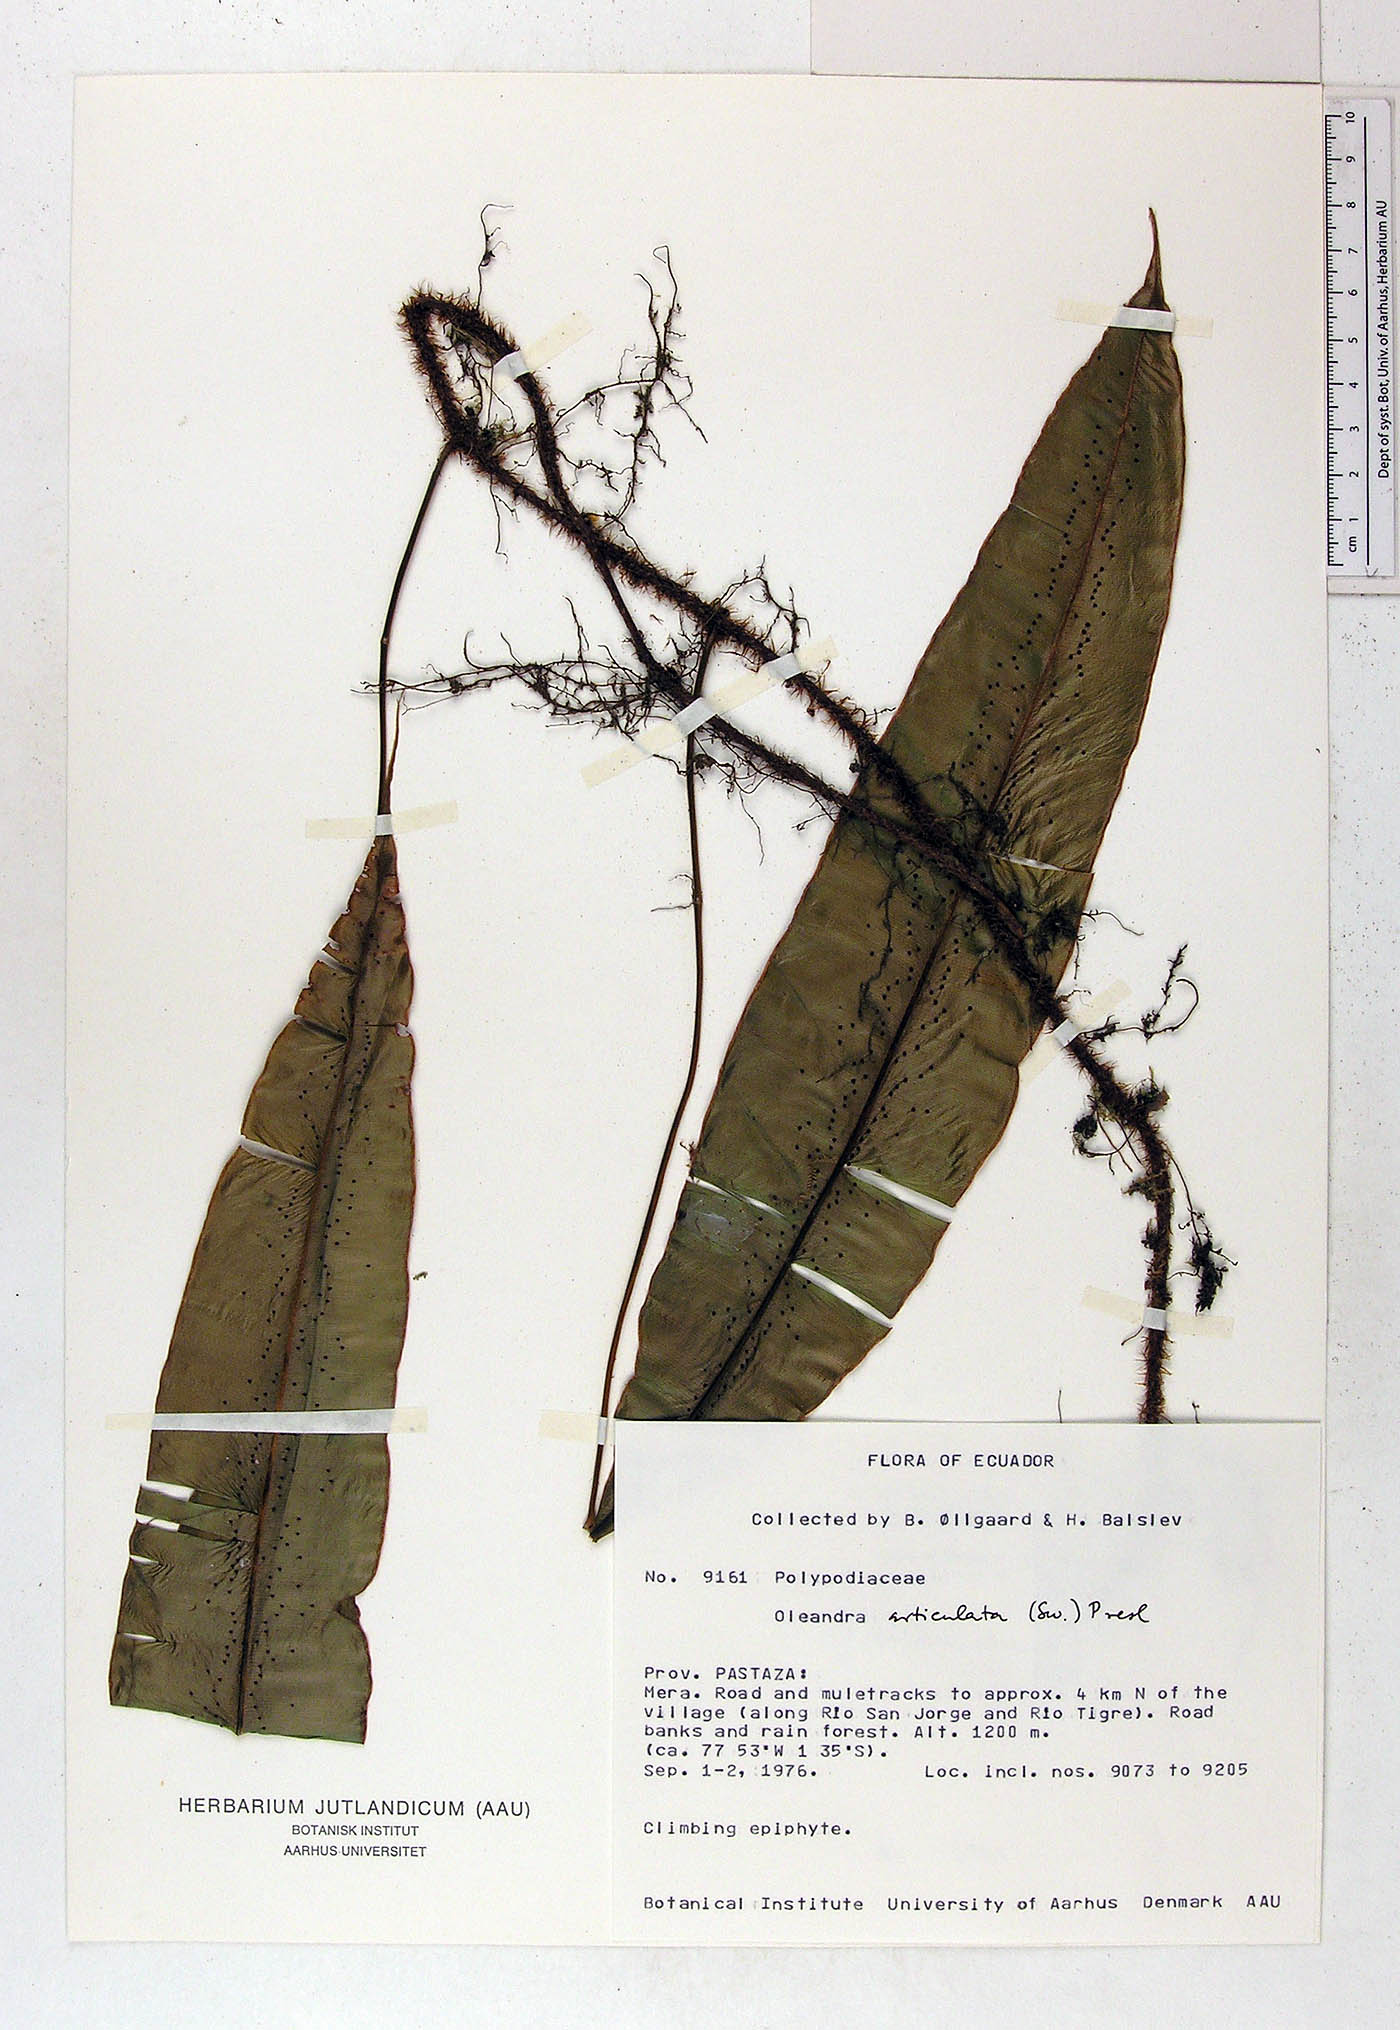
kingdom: Plantae
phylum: Tracheophyta
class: Polypodiopsida
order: Polypodiales
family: Oleandraceae
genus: Oleandra
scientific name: Oleandra articulata
